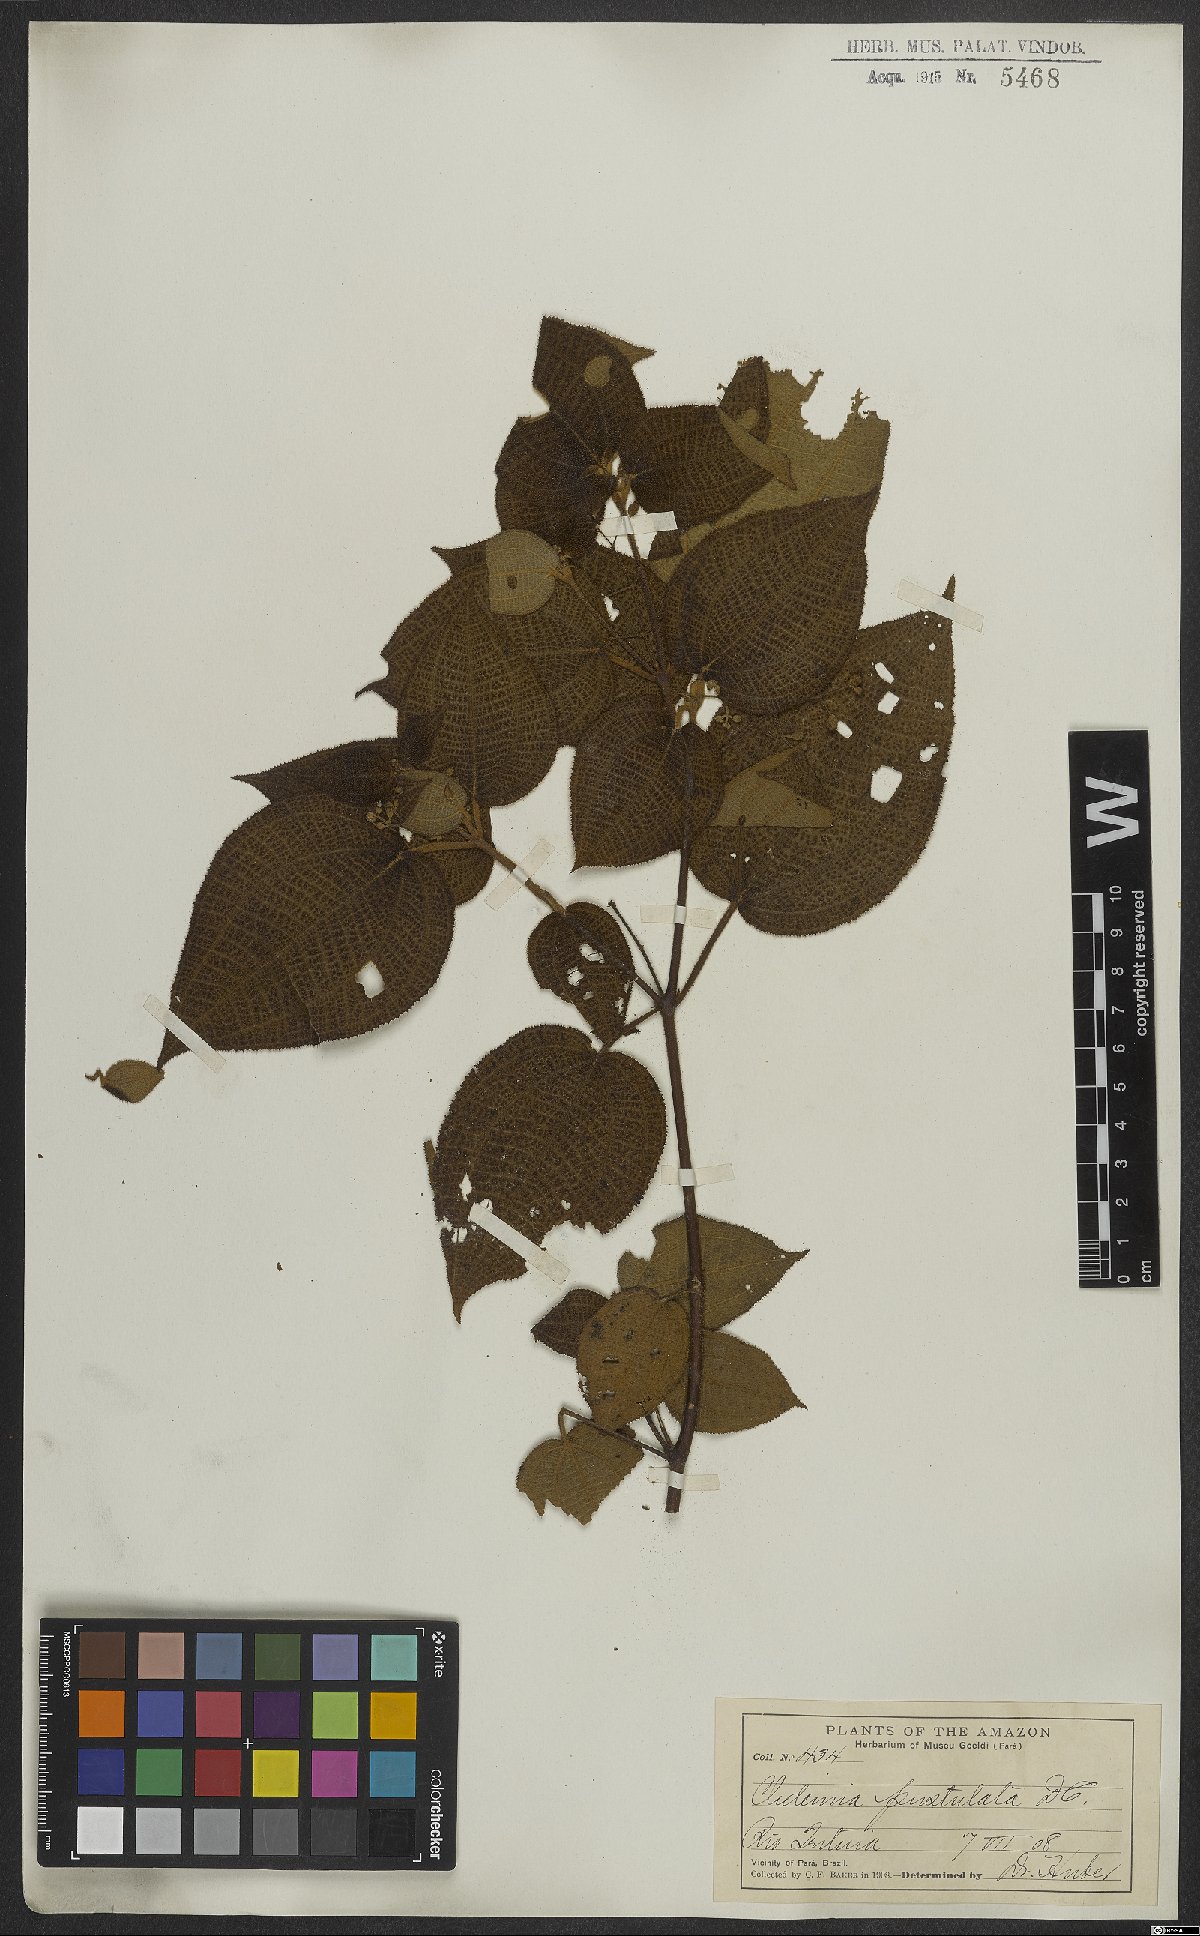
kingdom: Plantae
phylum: Tracheophyta
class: Magnoliopsida
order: Myrtales
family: Melastomataceae
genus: Miconia
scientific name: Miconia fenestrata
